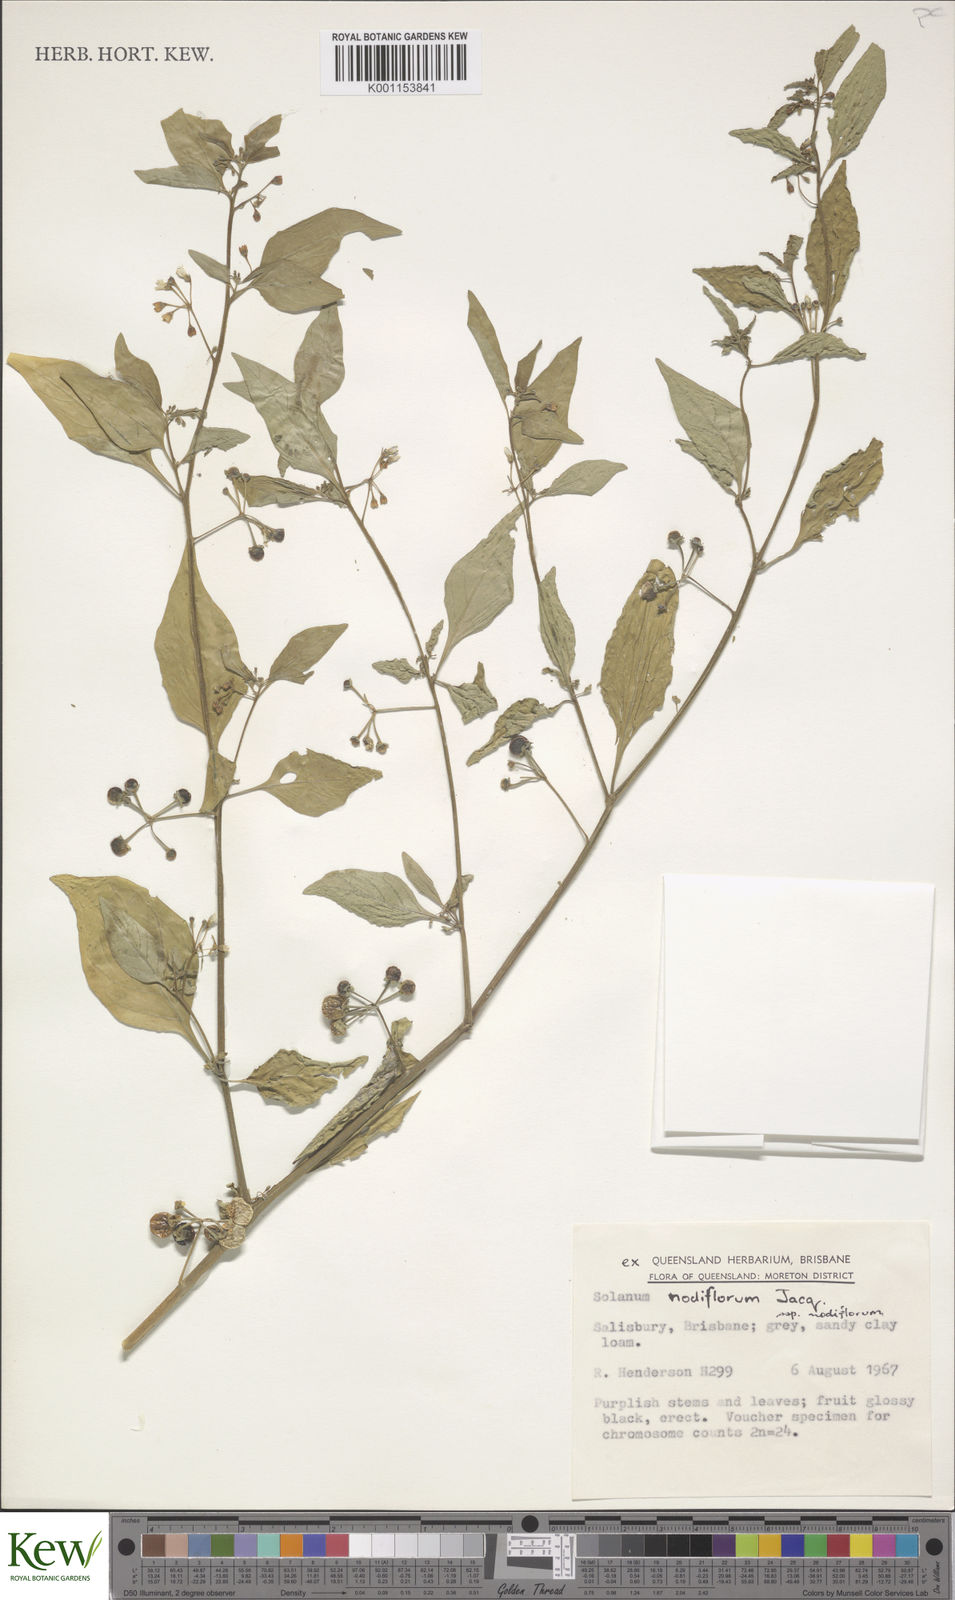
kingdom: Plantae
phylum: Tracheophyta
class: Magnoliopsida
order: Solanales
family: Solanaceae
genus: Solanum
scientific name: Solanum americanum
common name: American black nightshade
